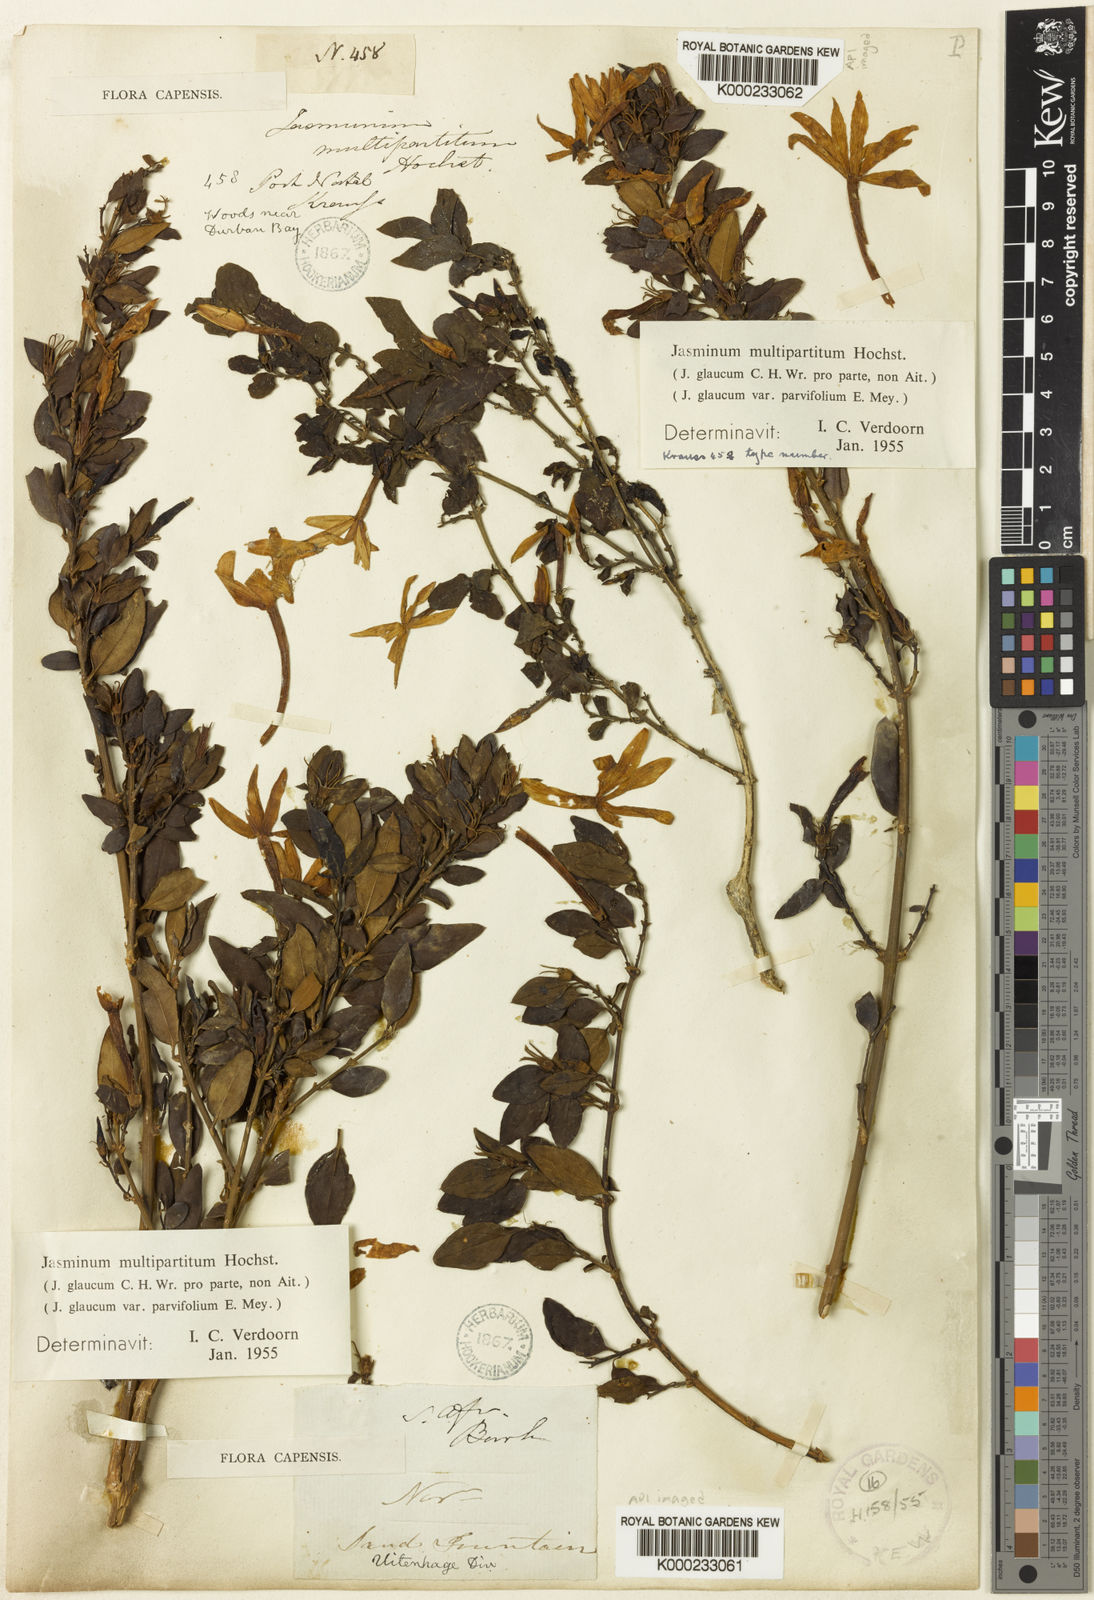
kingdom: Plantae
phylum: Tracheophyta
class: Magnoliopsida
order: Lamiales
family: Oleaceae
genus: Jasminum
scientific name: Jasminum multipartitum
